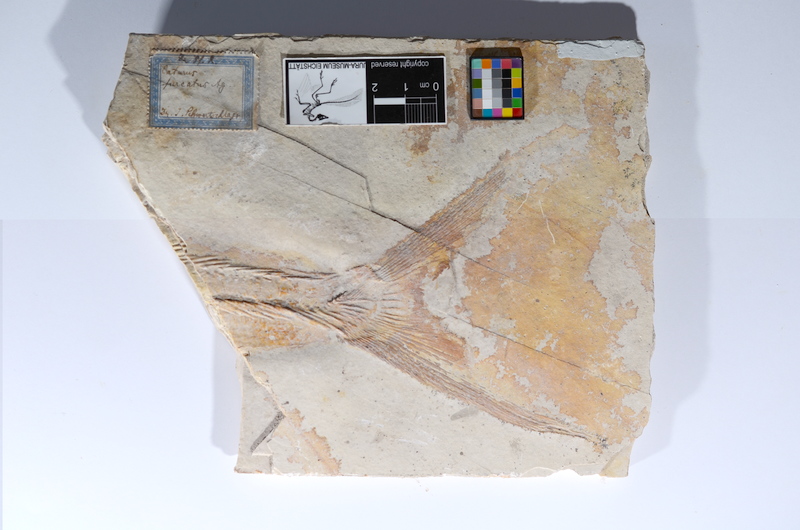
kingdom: Animalia
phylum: Chordata
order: Amiiformes
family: Caturidae
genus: Caturus
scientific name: Caturus furcatus
